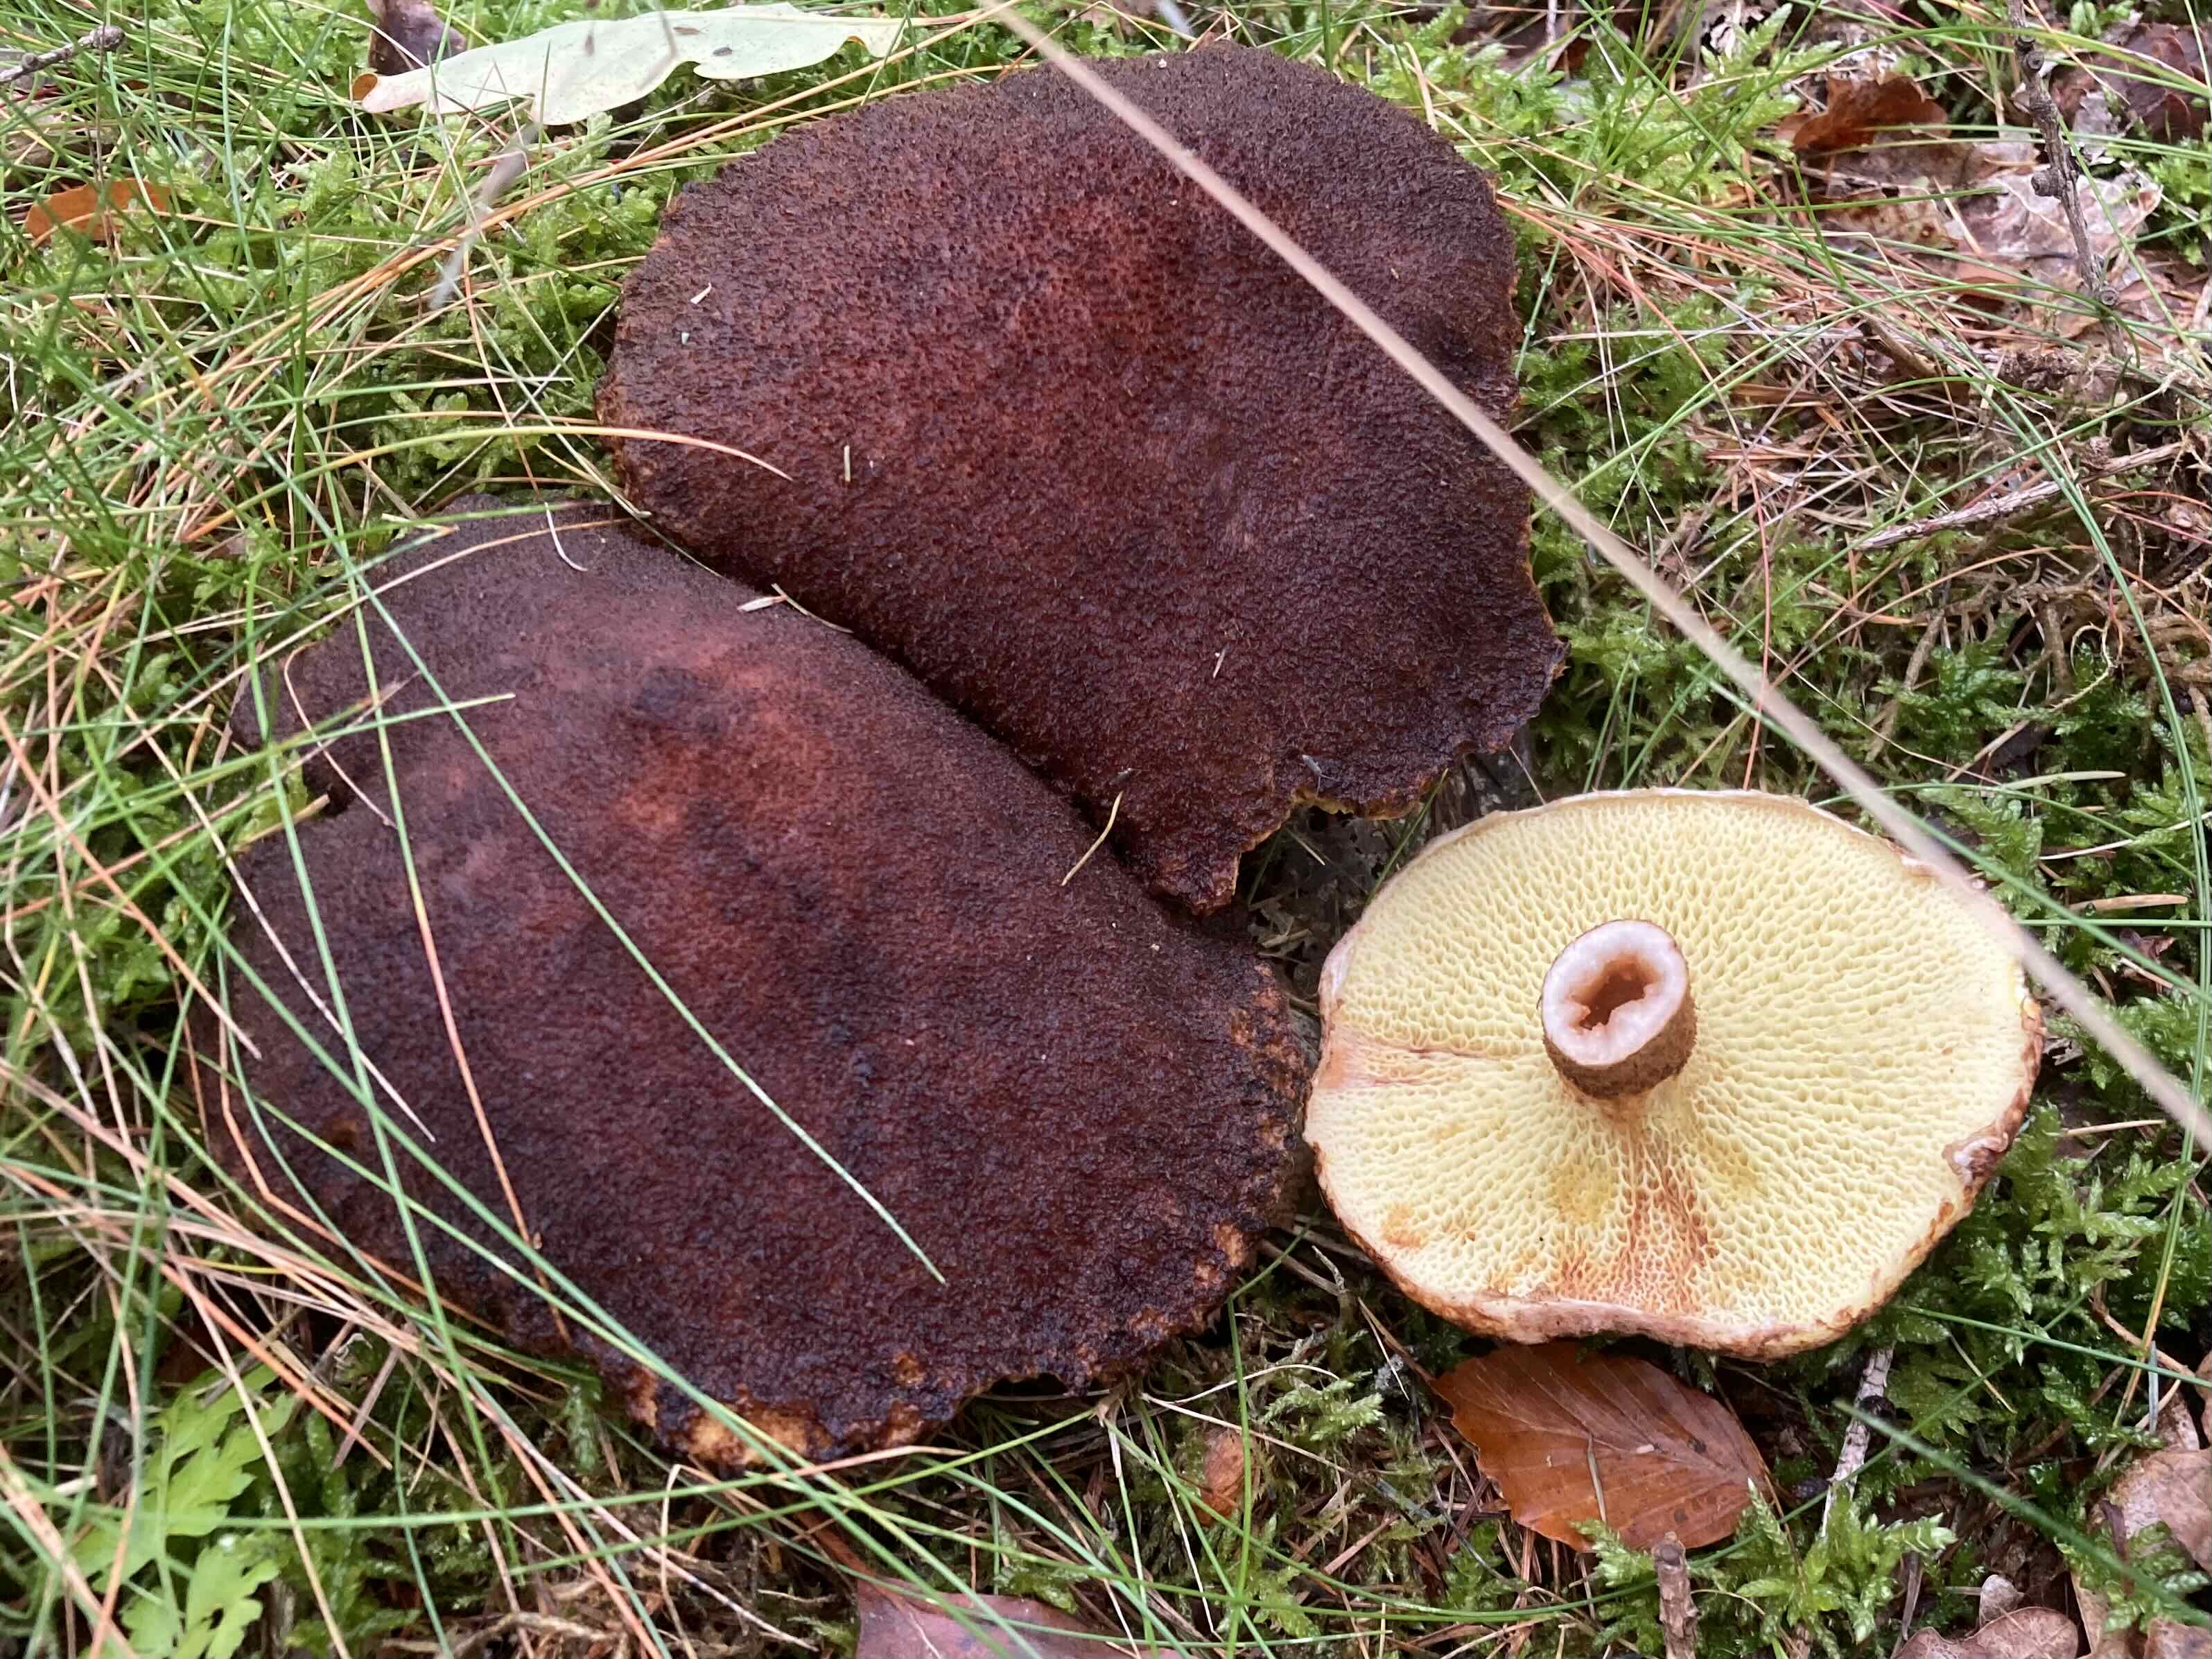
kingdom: Fungi
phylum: Basidiomycota
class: Agaricomycetes
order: Boletales
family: Suillaceae
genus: Suillus
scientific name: Suillus cavipes
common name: hulstokket slimrørhat
